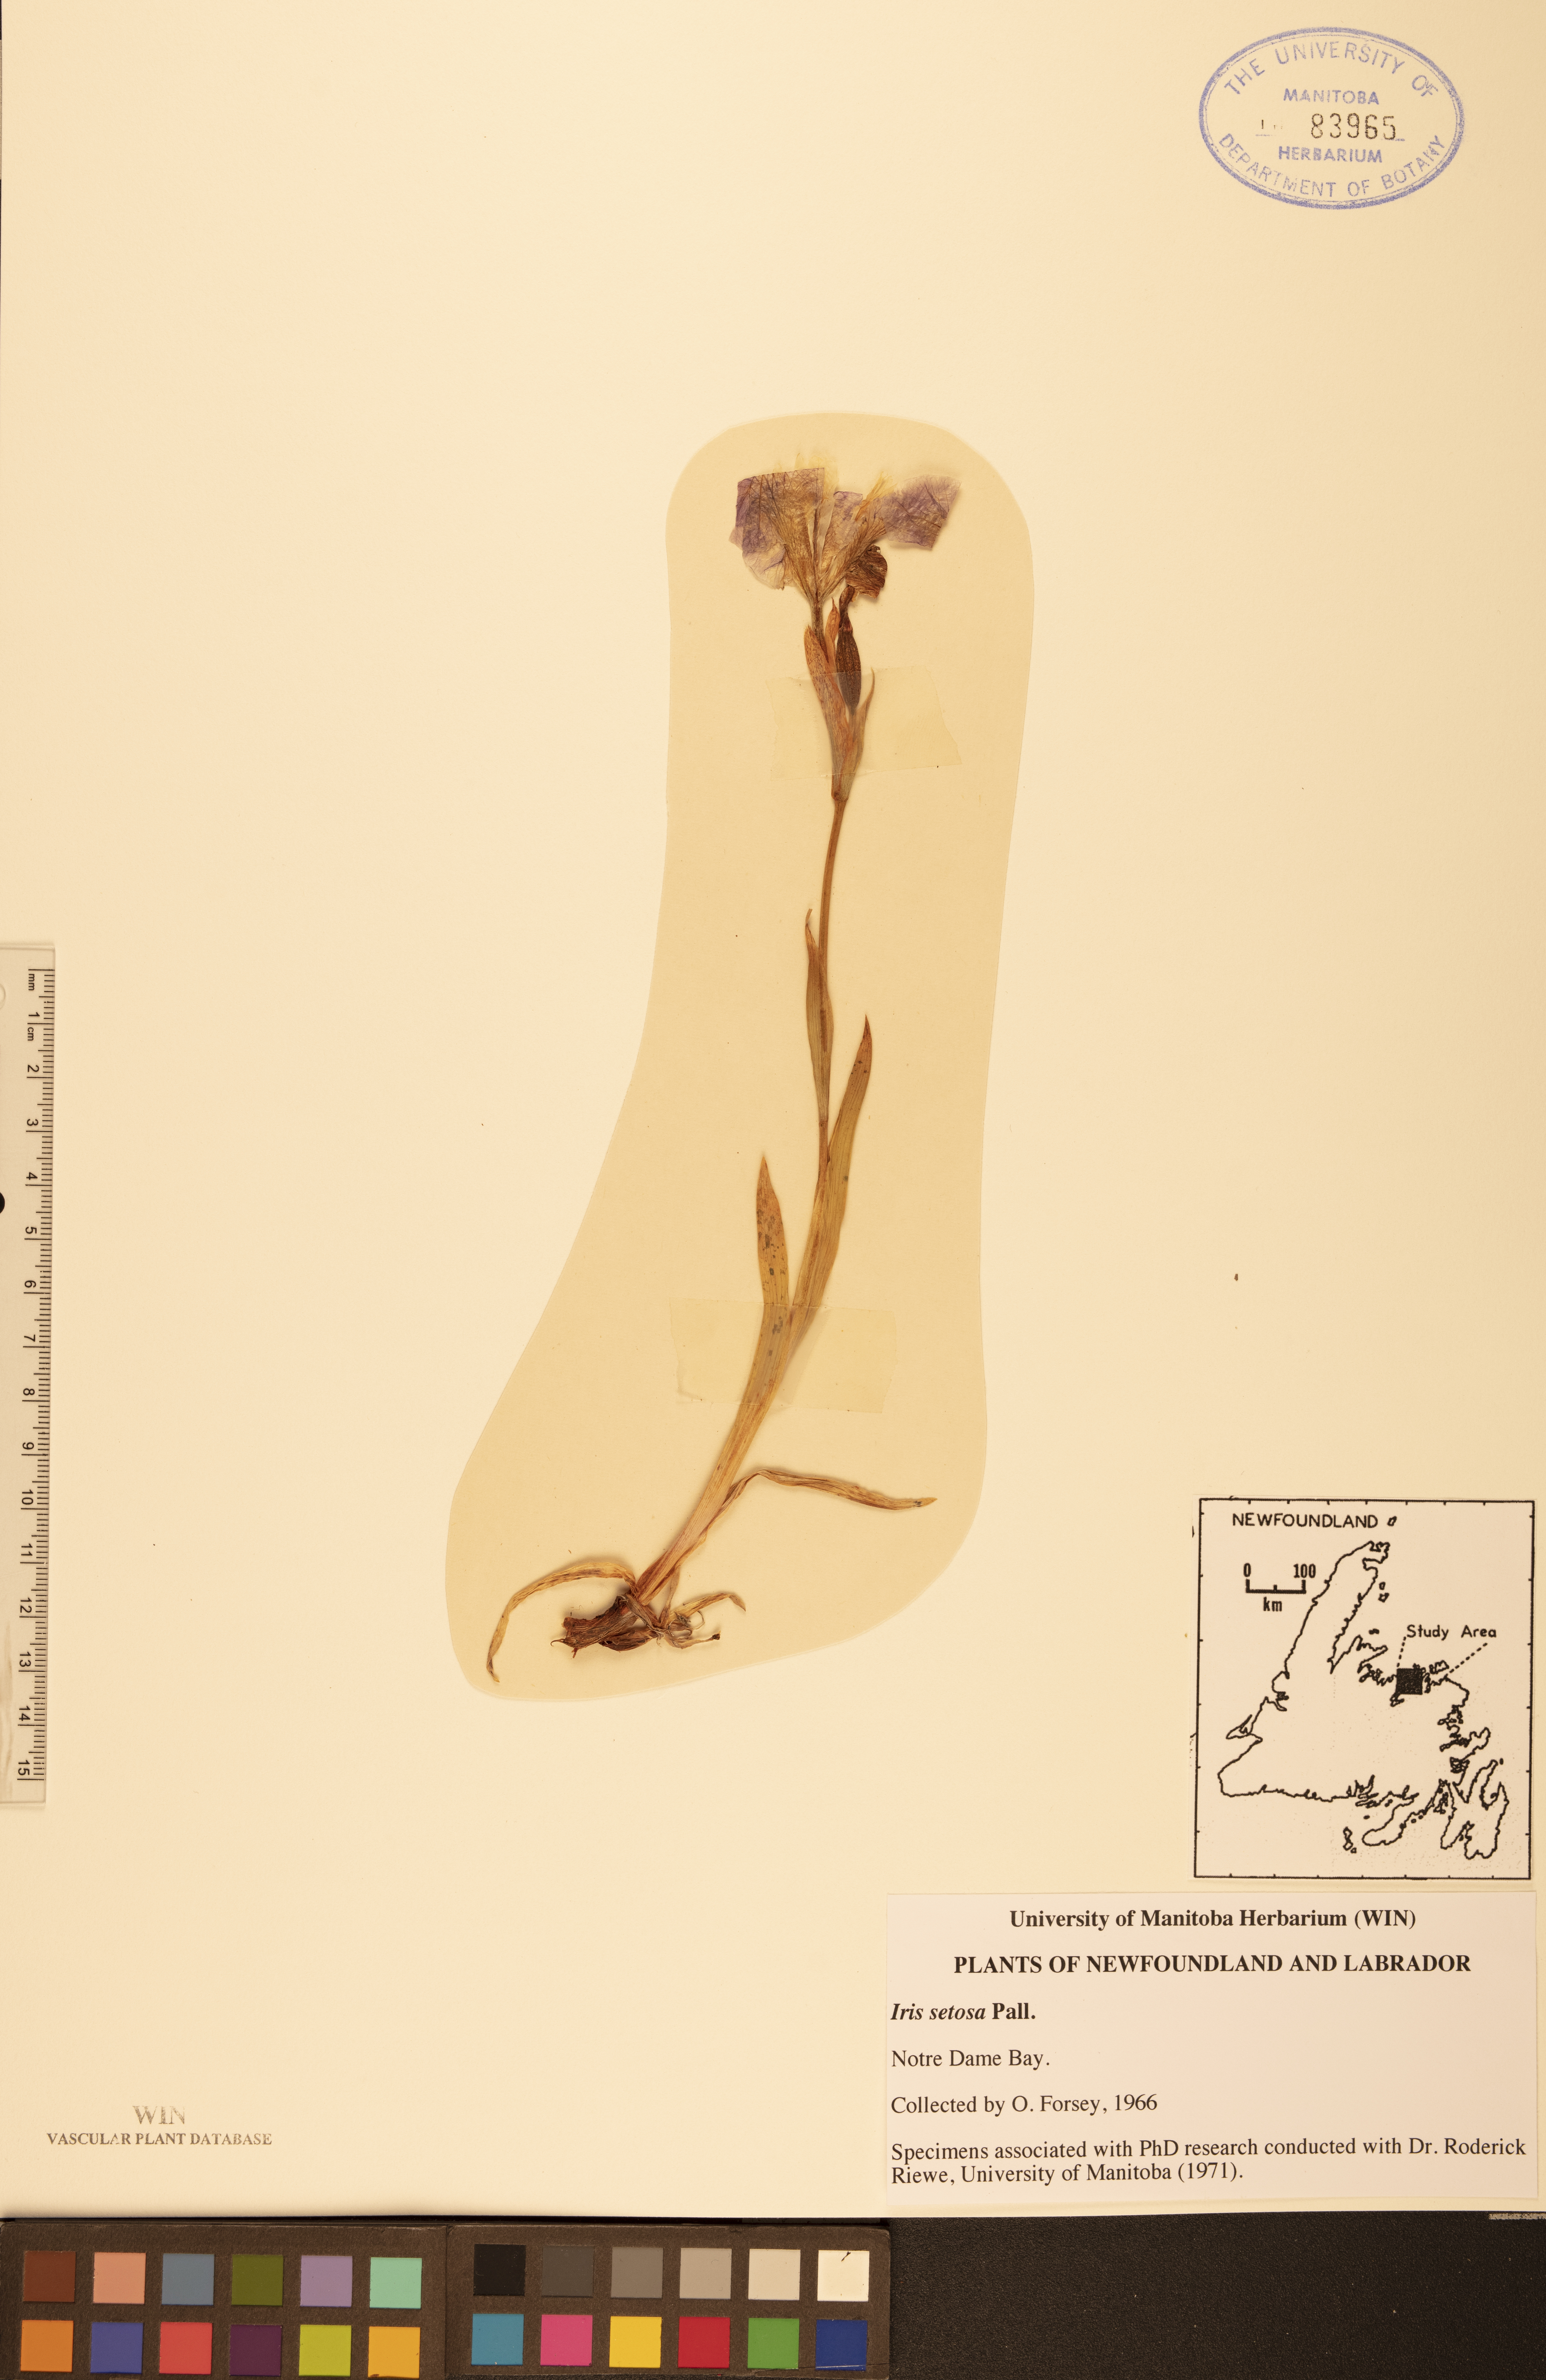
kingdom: Plantae
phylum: Tracheophyta
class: Liliopsida
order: Asparagales
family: Iridaceae
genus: Iris
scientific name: Iris setosa
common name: Arctic blue flag
